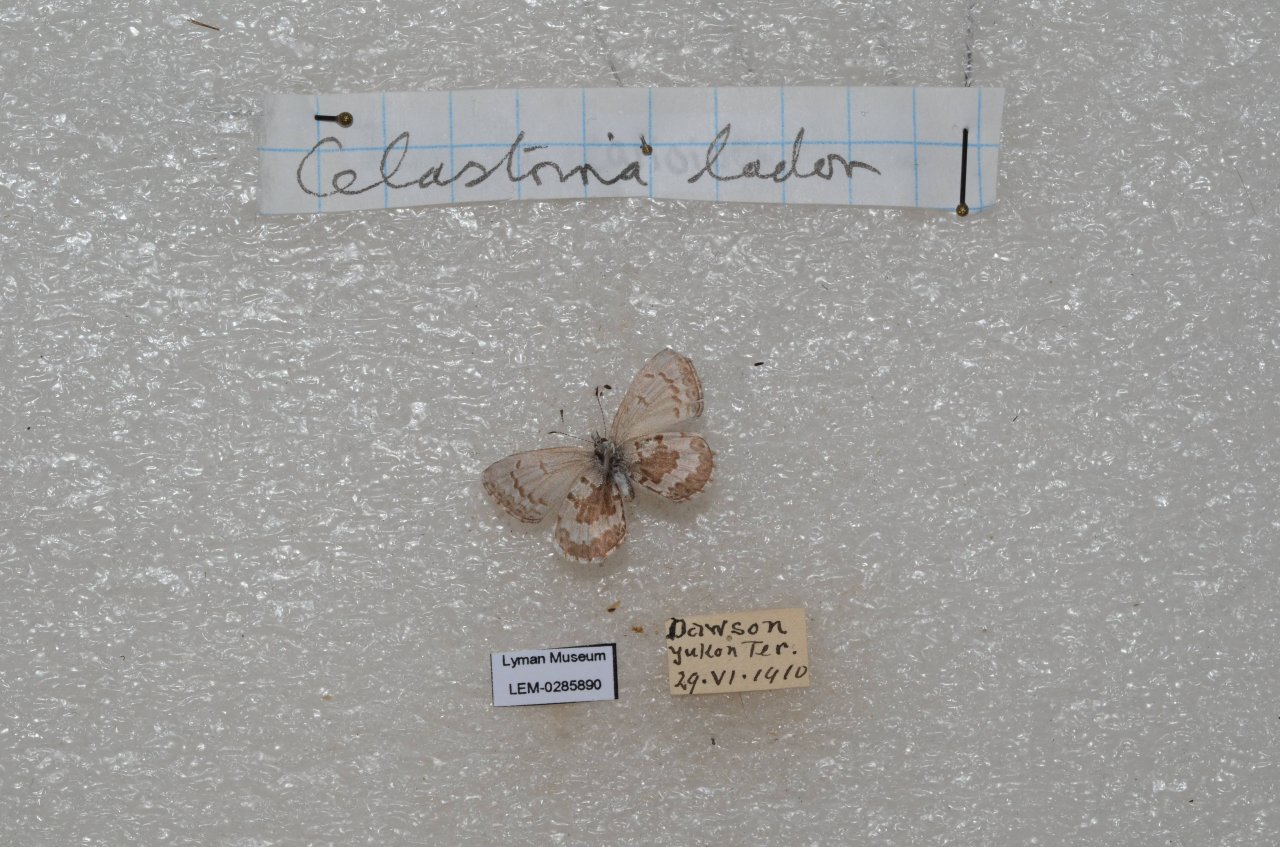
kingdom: Animalia
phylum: Arthropoda
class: Insecta
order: Lepidoptera
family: Lycaenidae
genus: Celastrina
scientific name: Celastrina lucia
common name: Northern Spring Azure
